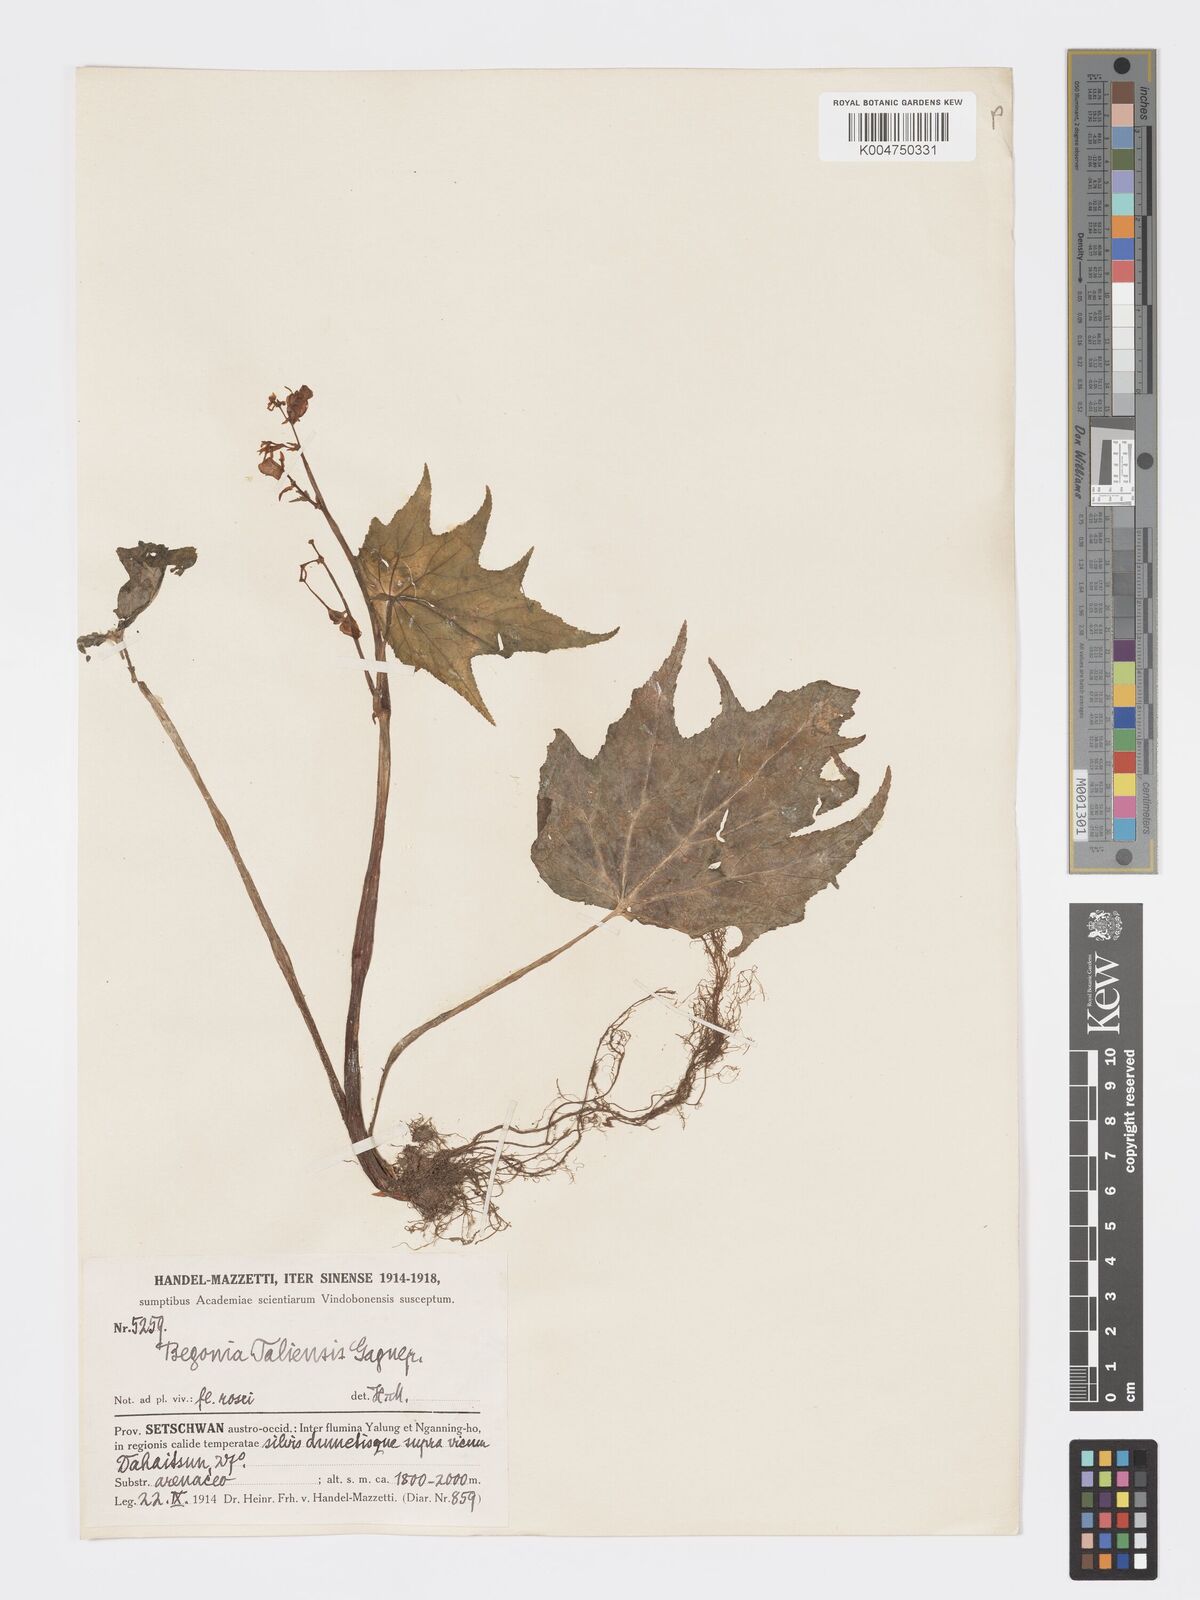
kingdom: Plantae
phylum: Tracheophyta
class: Magnoliopsida
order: Cucurbitales
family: Begoniaceae
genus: Begonia
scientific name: Begonia taliensis
